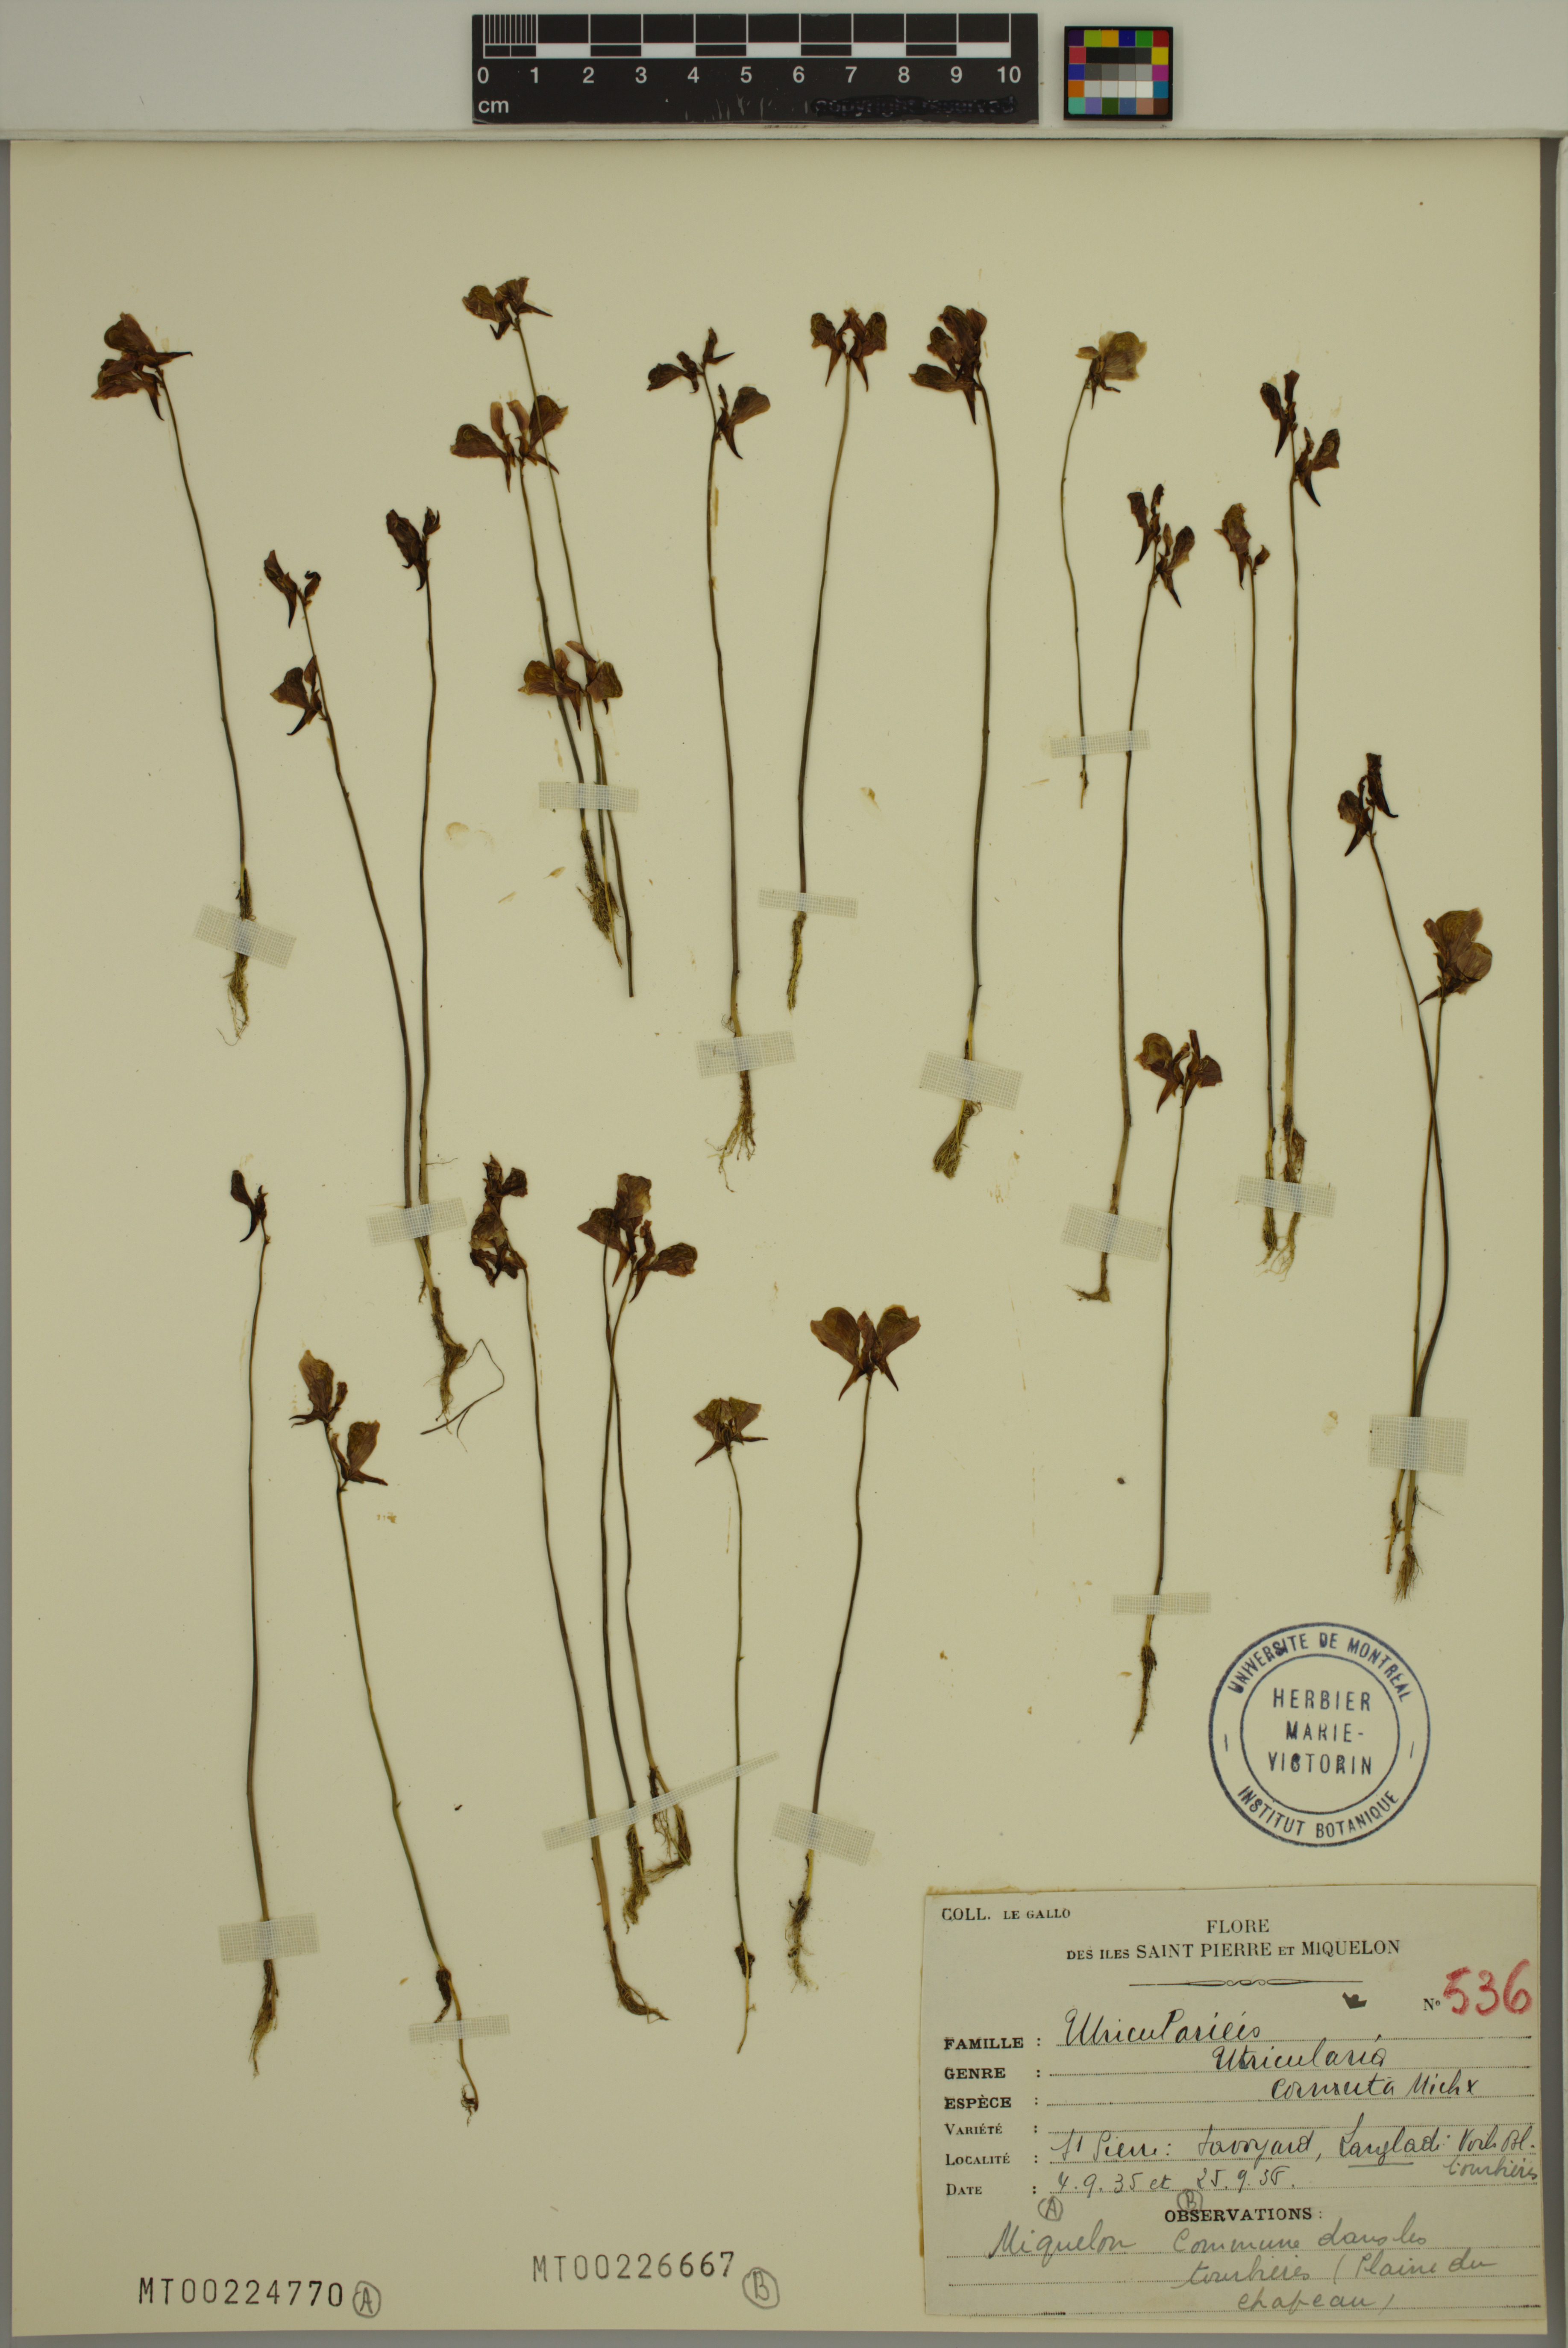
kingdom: Plantae
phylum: Tracheophyta
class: Magnoliopsida
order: Lamiales
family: Lentibulariaceae
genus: Utricularia
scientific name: Utricularia cornuta
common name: Horned bladderwort
